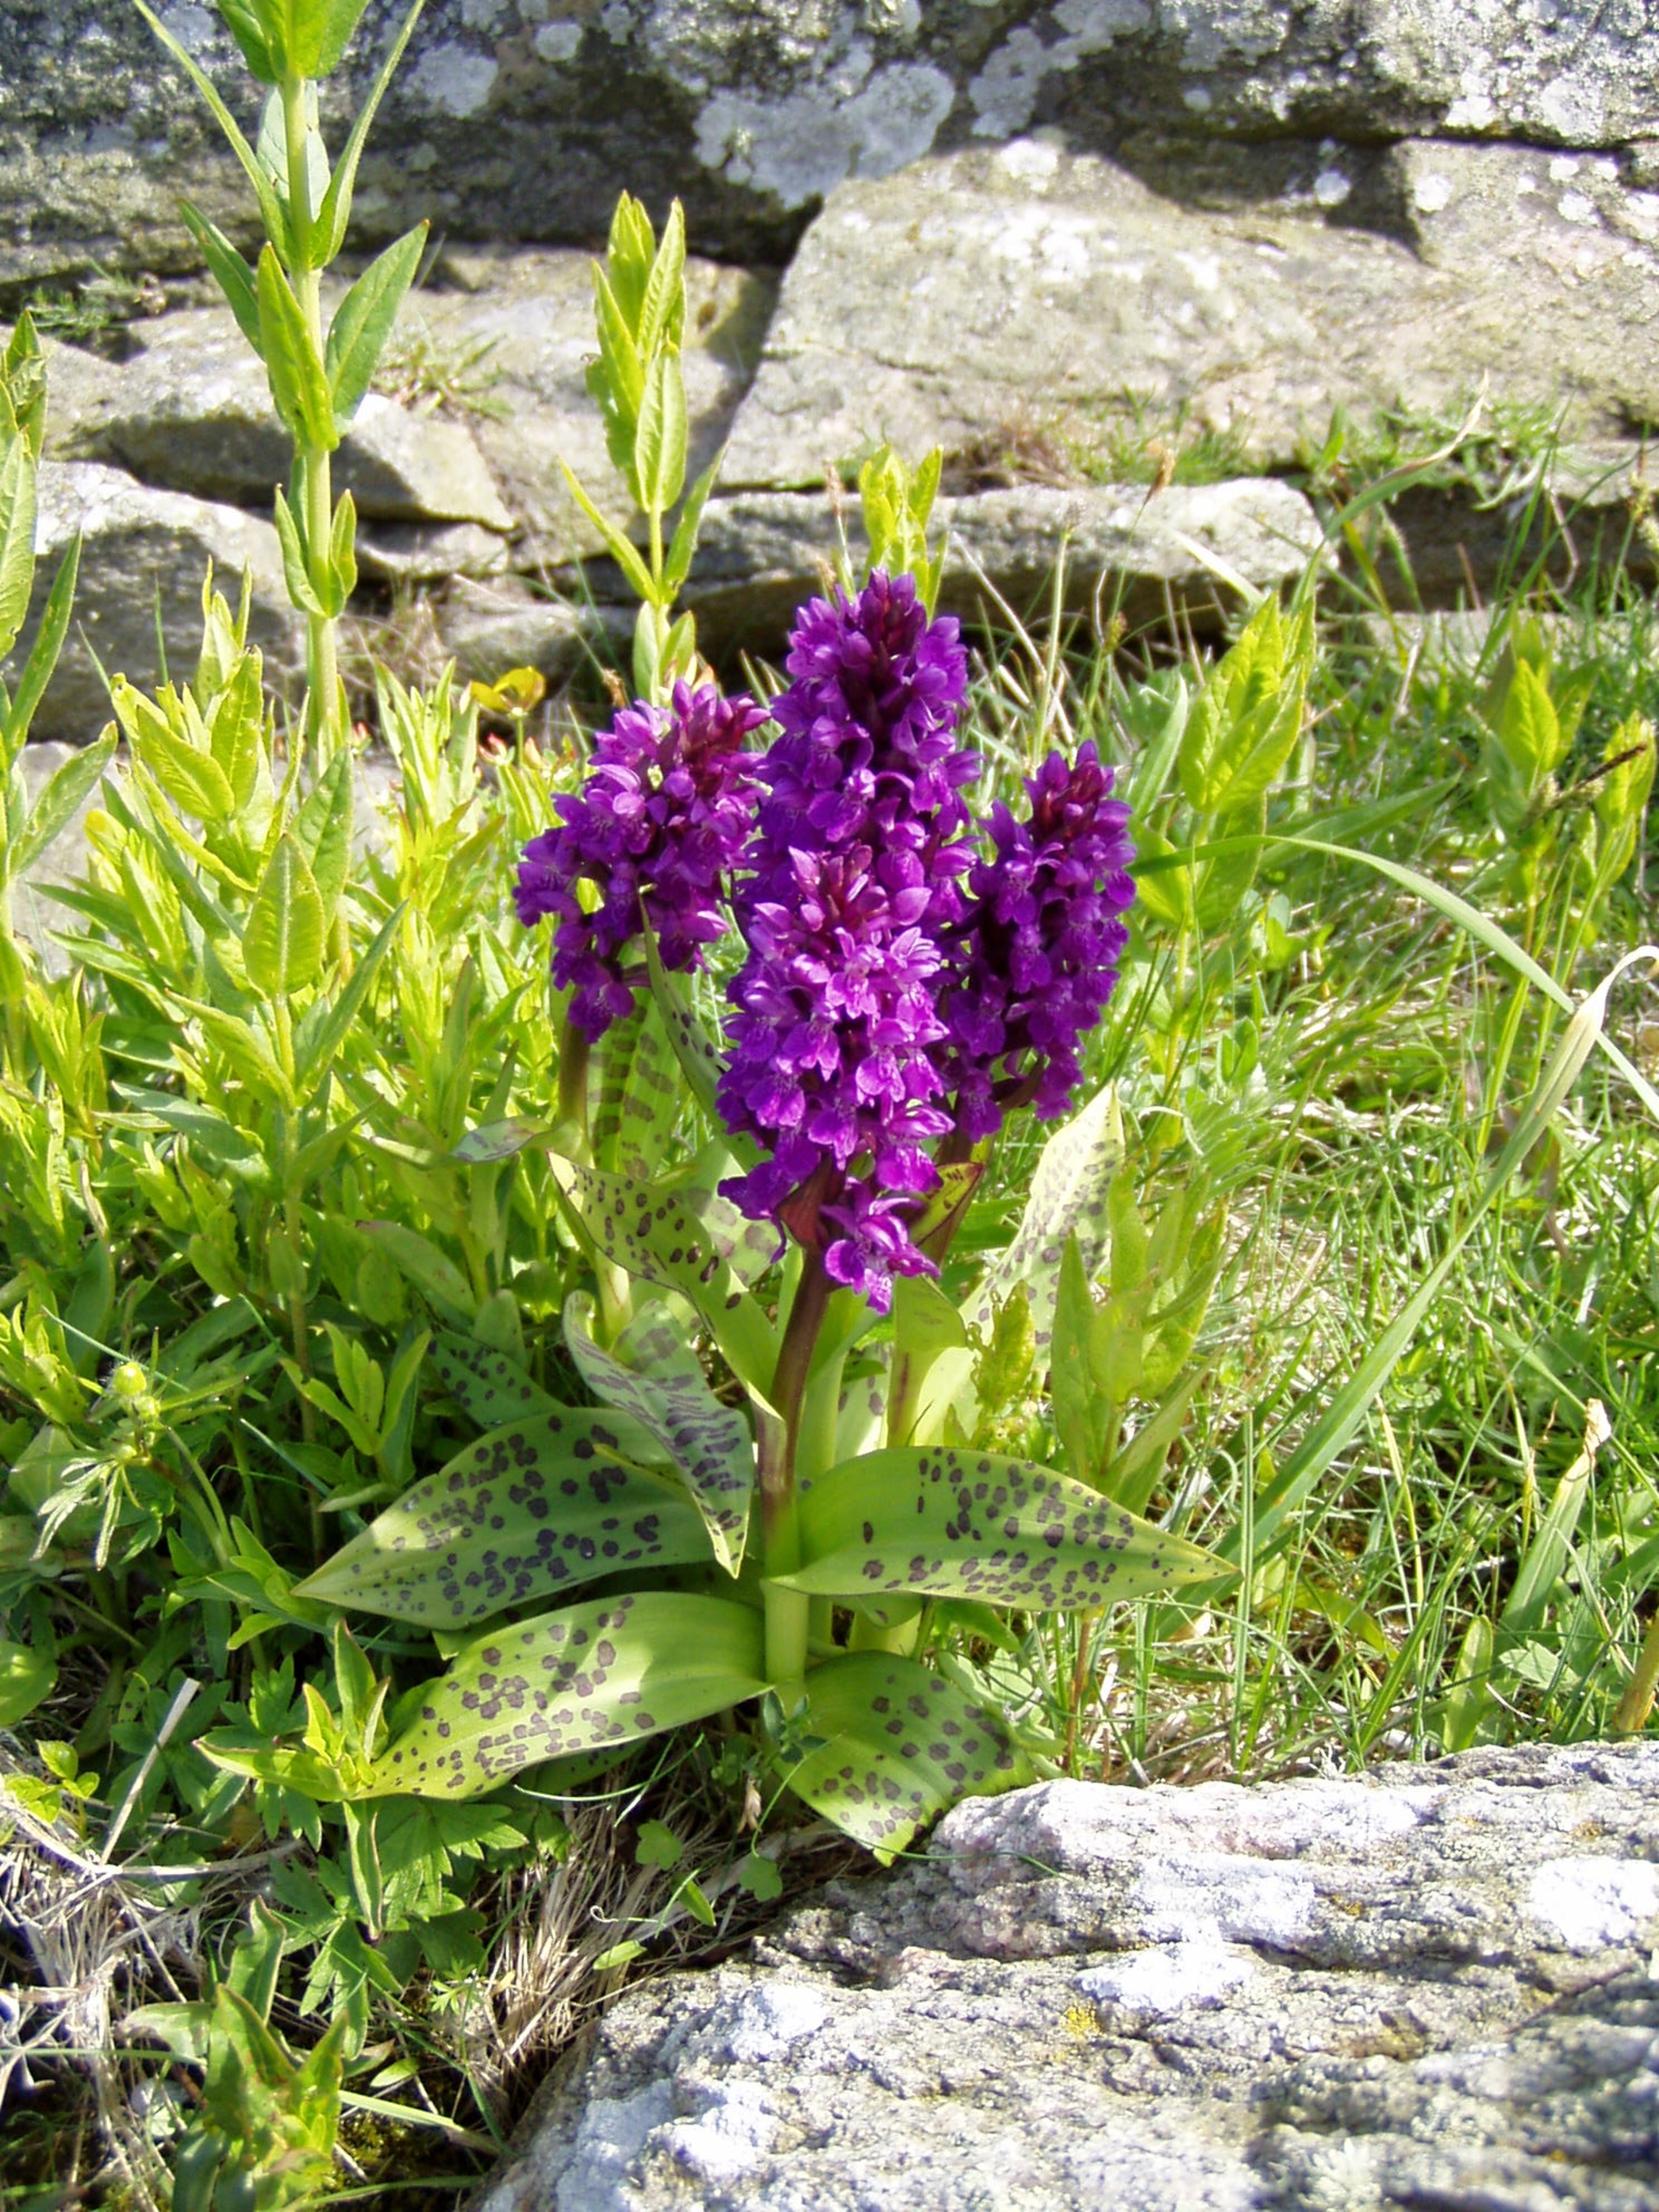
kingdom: Plantae
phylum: Tracheophyta
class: Liliopsida
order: Asparagales
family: Orchidaceae
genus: Dactylorhiza
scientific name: Dactylorhiza majalis
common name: Maj-gøgeurt
